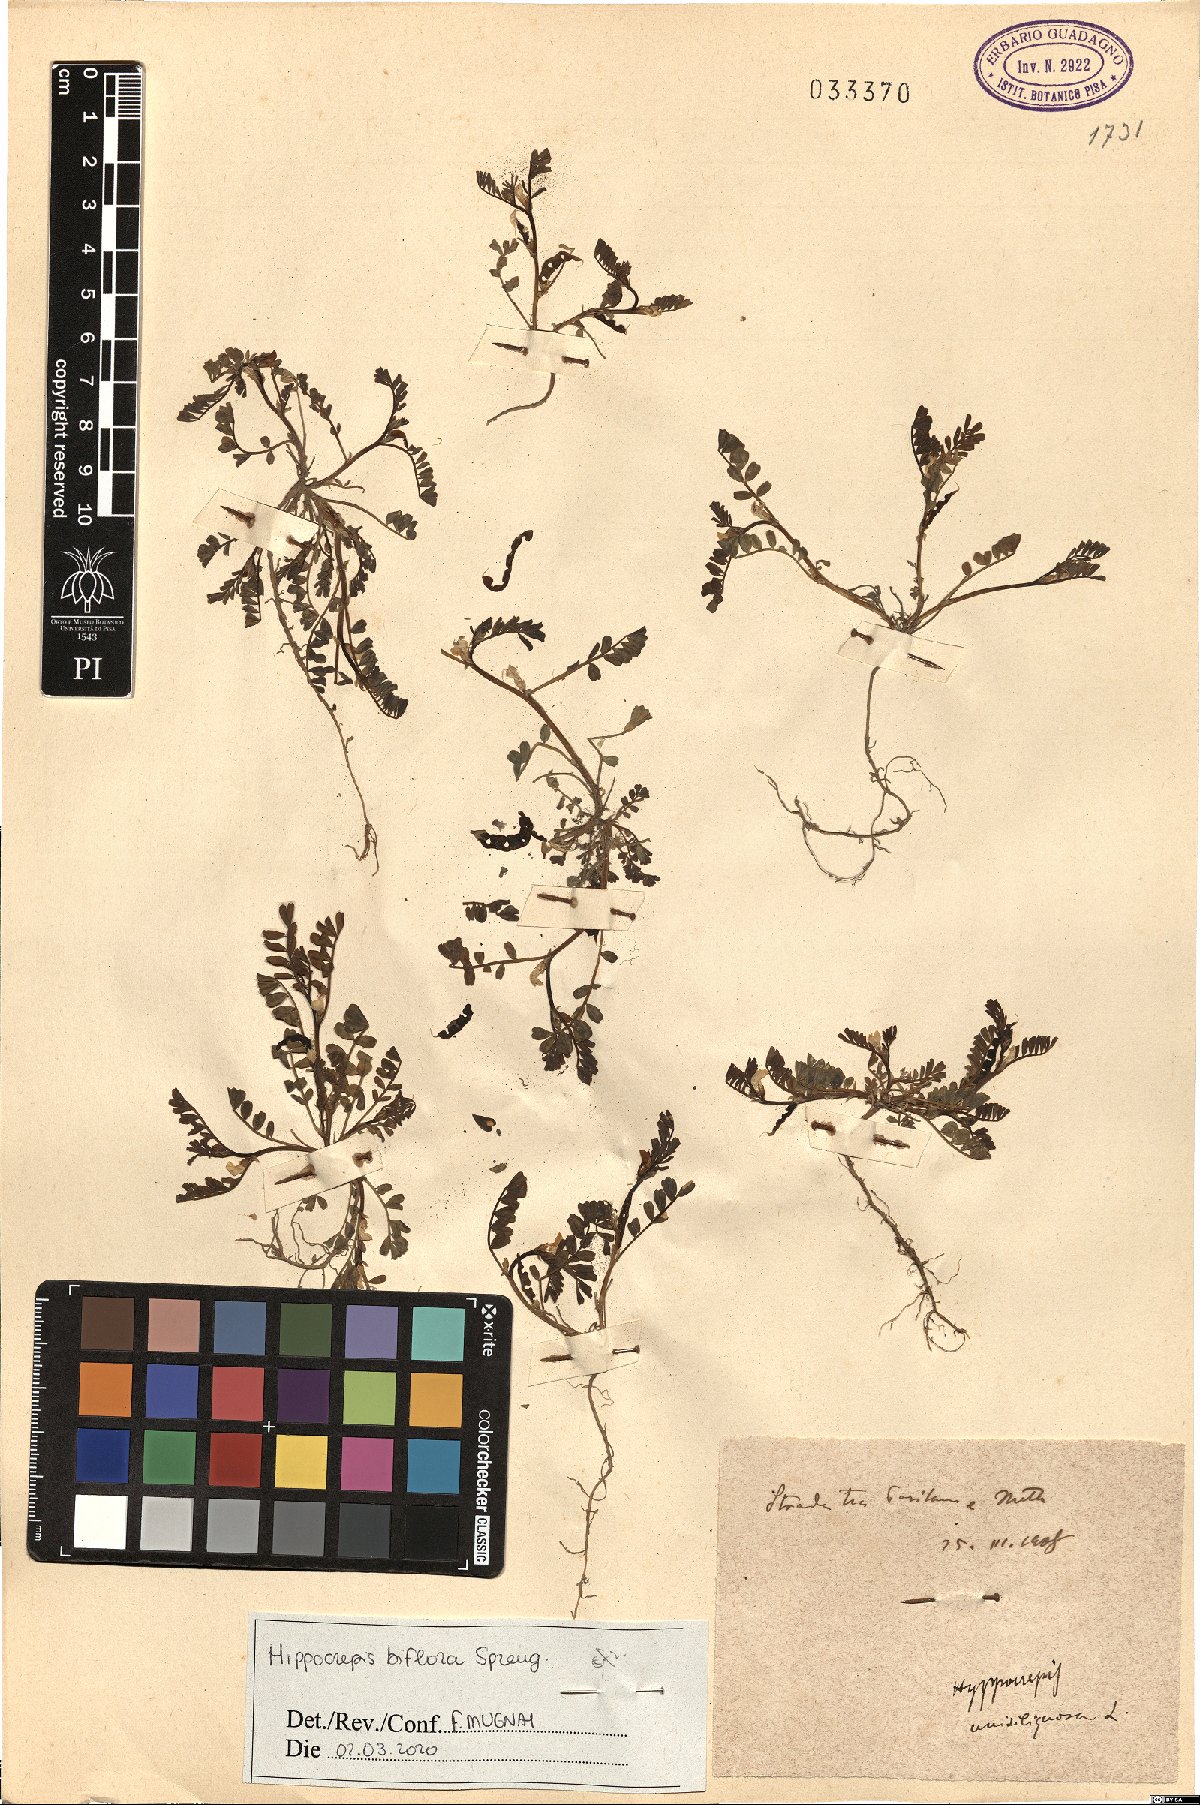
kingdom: Plantae
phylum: Tracheophyta
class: Magnoliopsida
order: Fabales
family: Fabaceae
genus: Hippocrepis
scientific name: Hippocrepis biflora
